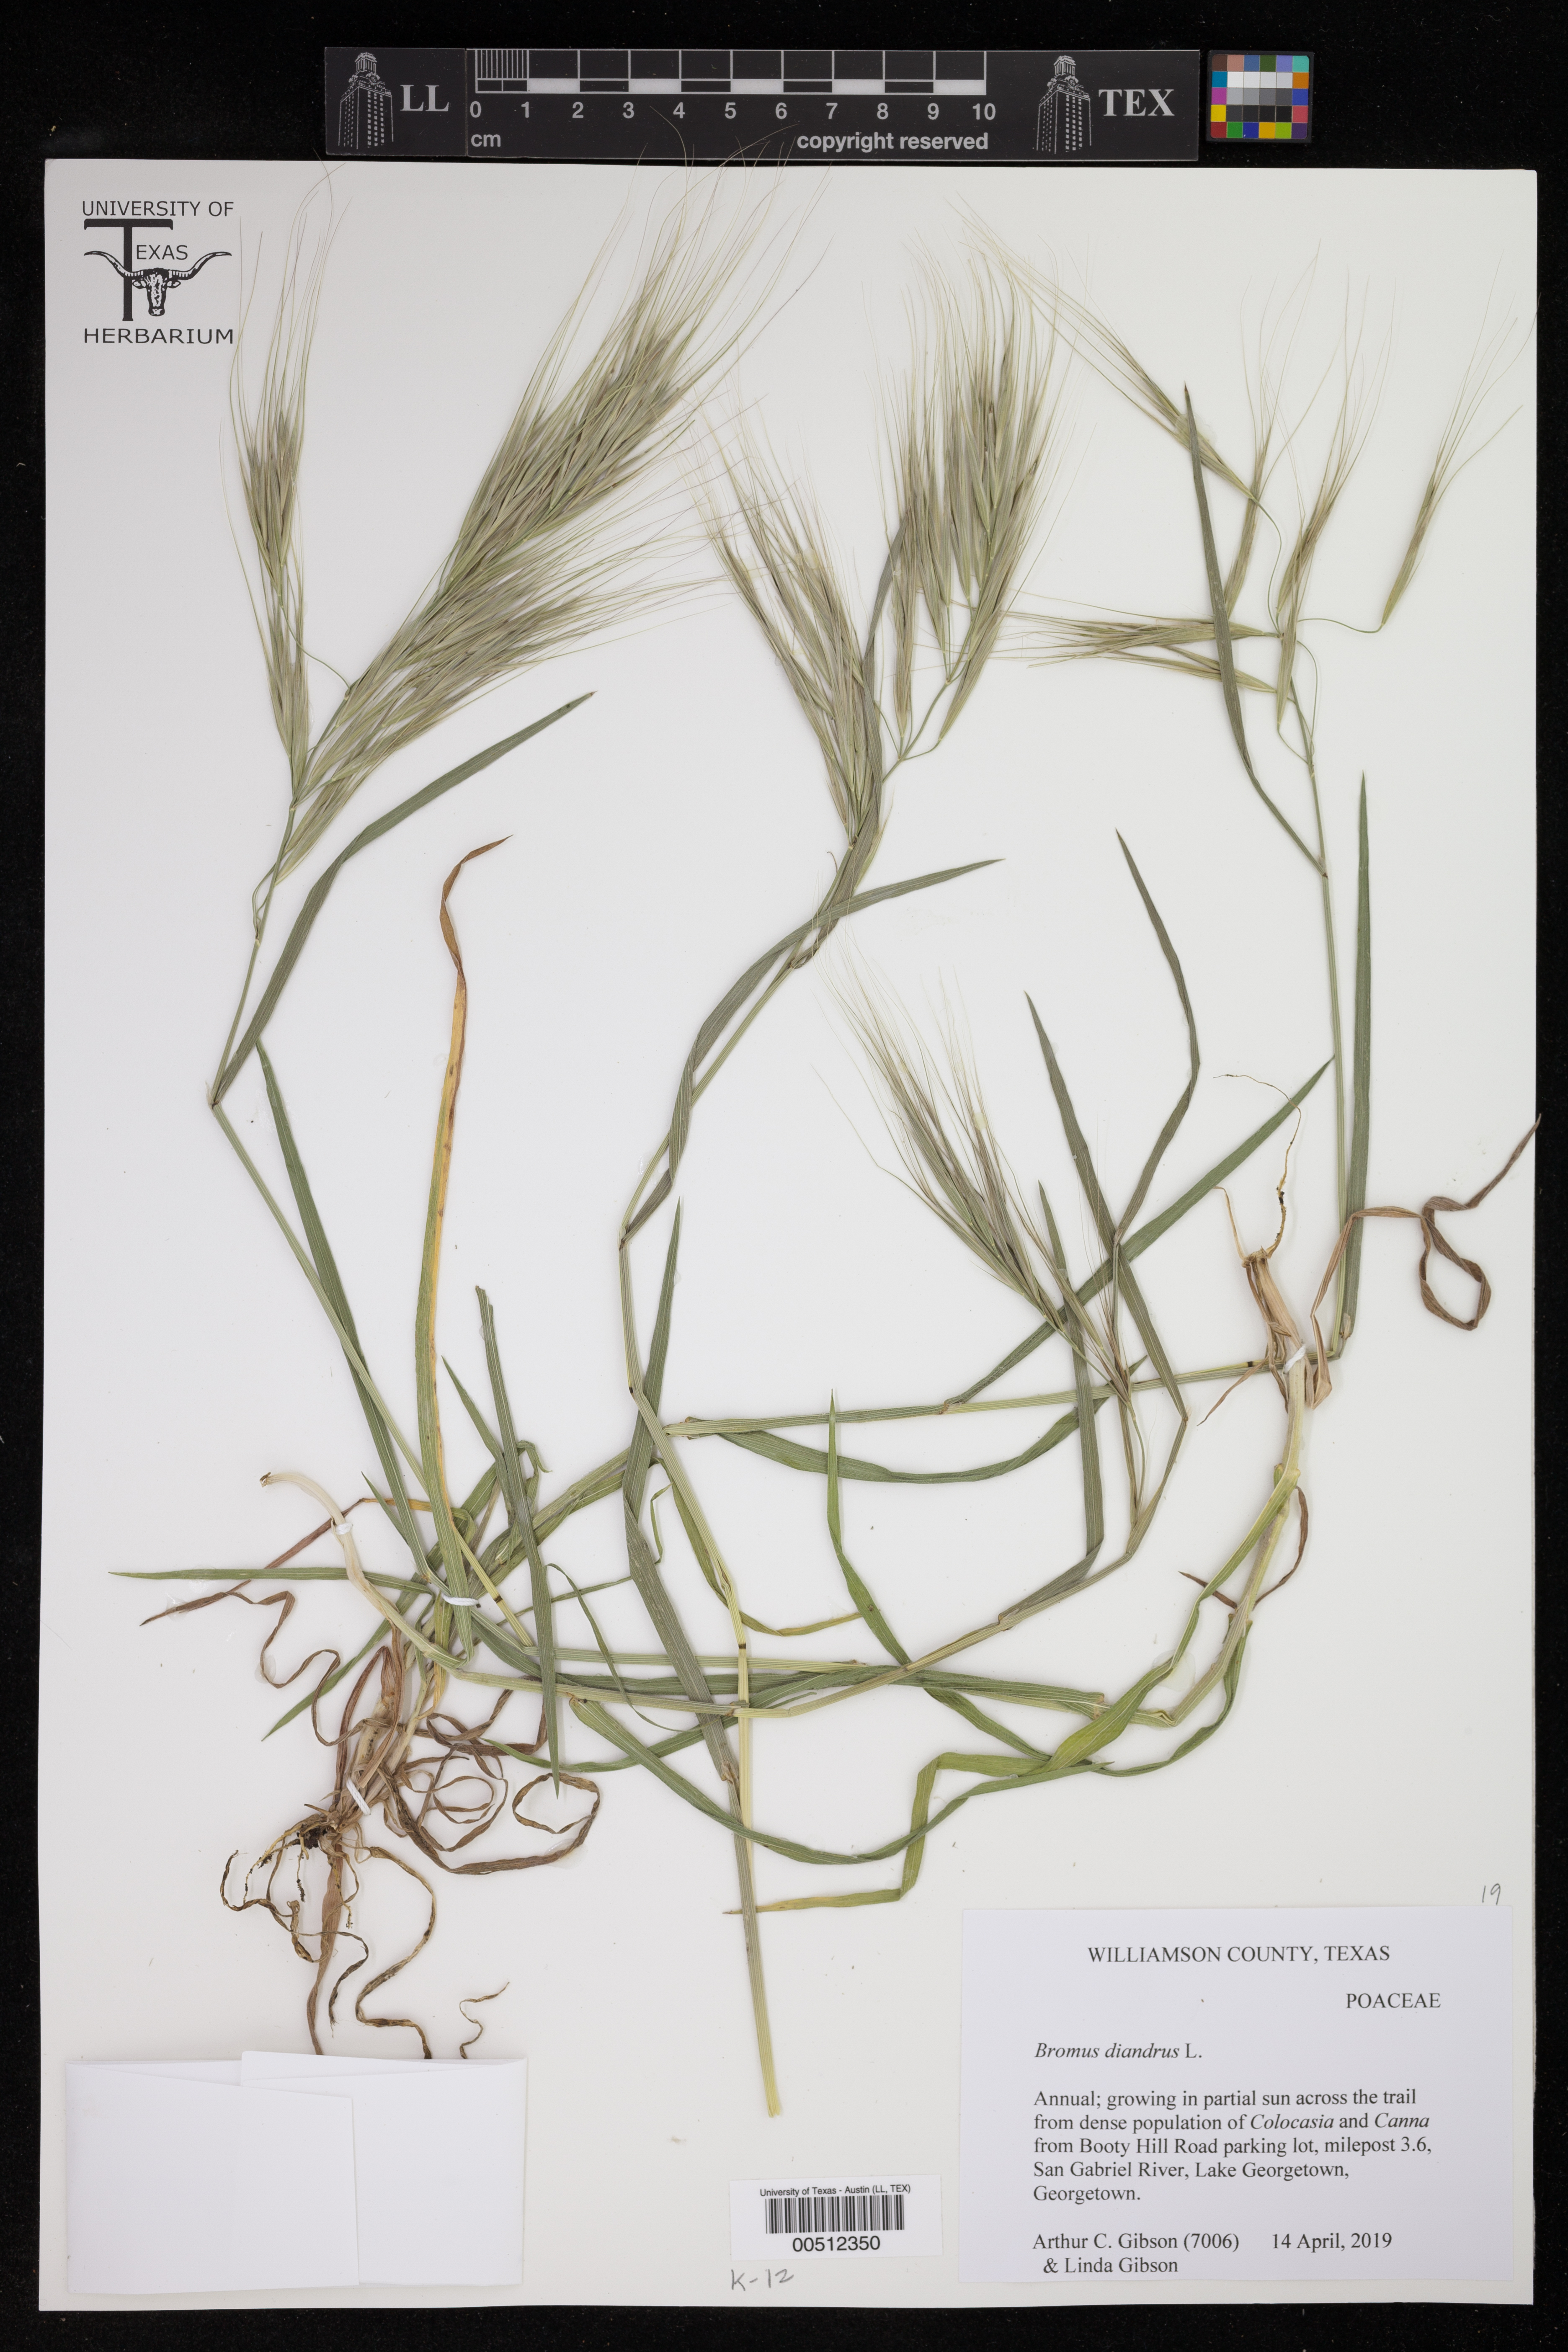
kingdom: Plantae
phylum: Tracheophyta
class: Liliopsida
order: Poales
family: Poaceae
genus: Bromus
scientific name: Bromus diandrus
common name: Ripgut brome
